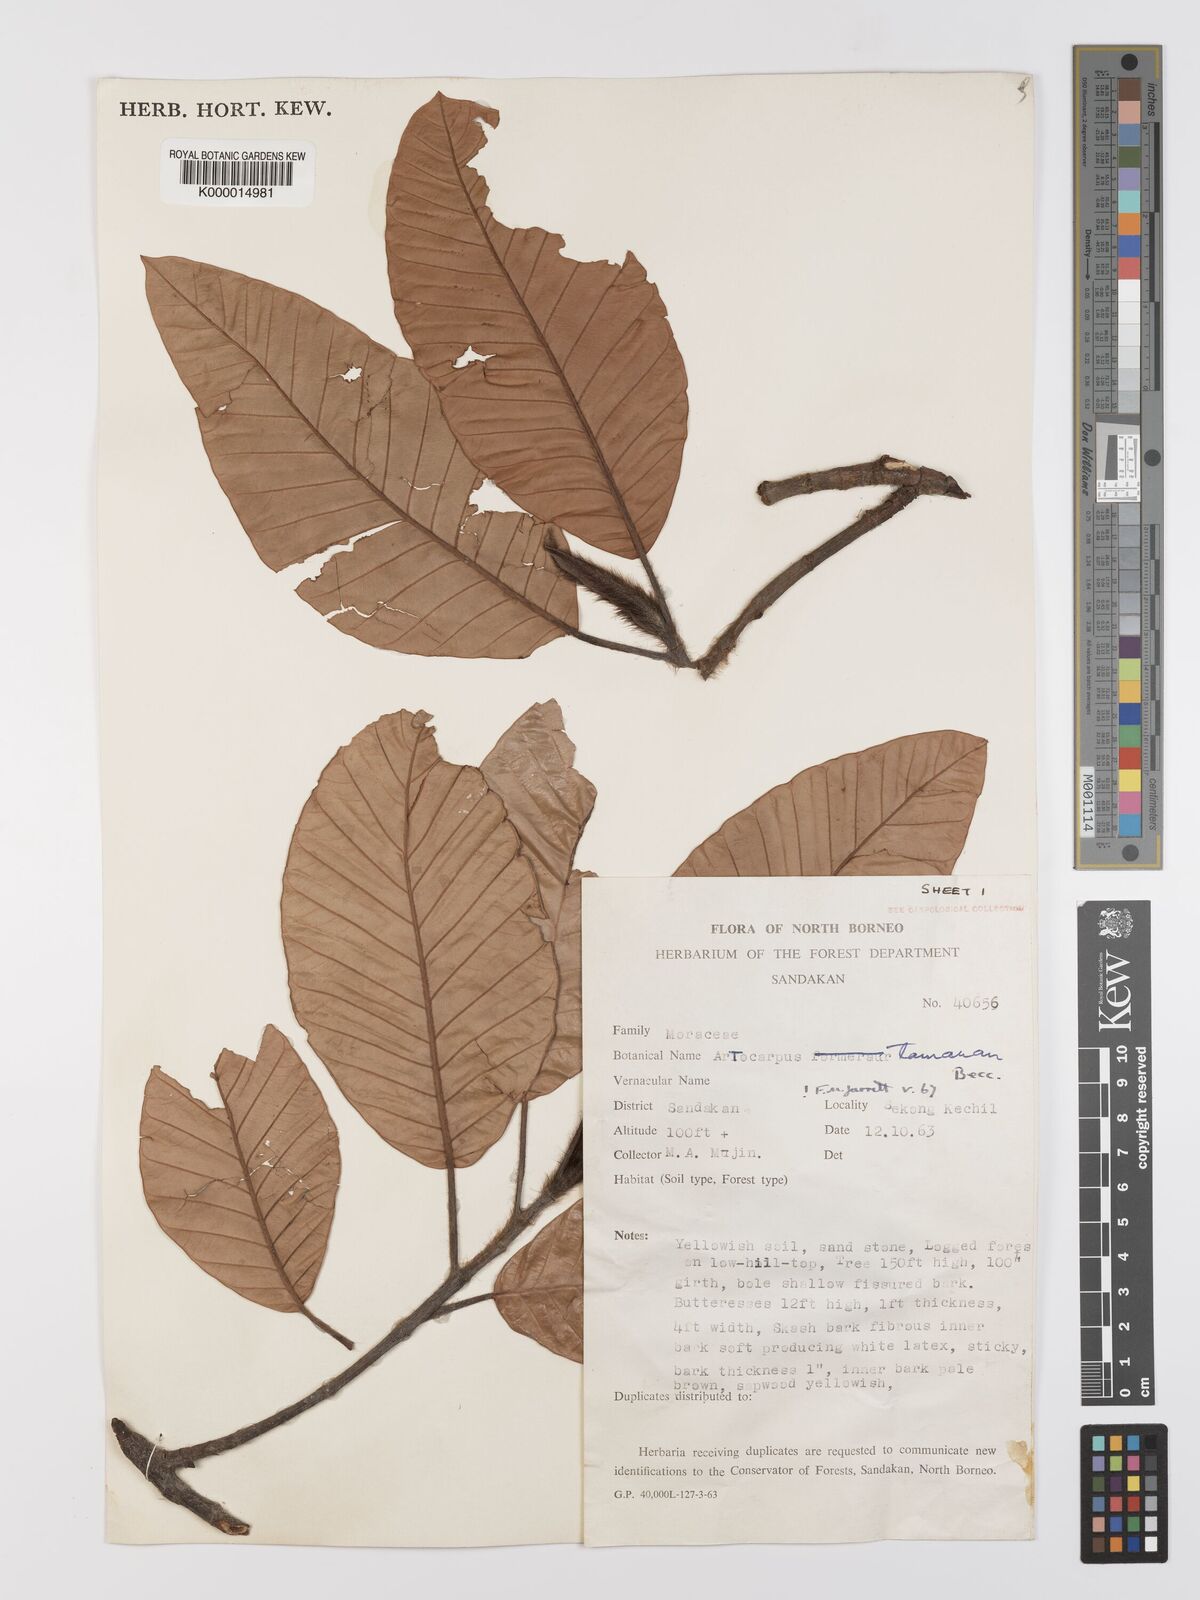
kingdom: Plantae
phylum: Tracheophyta
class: Magnoliopsida
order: Rosales
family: Moraceae
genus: Artocarpus
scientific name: Artocarpus tamaran
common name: Elephant jack
